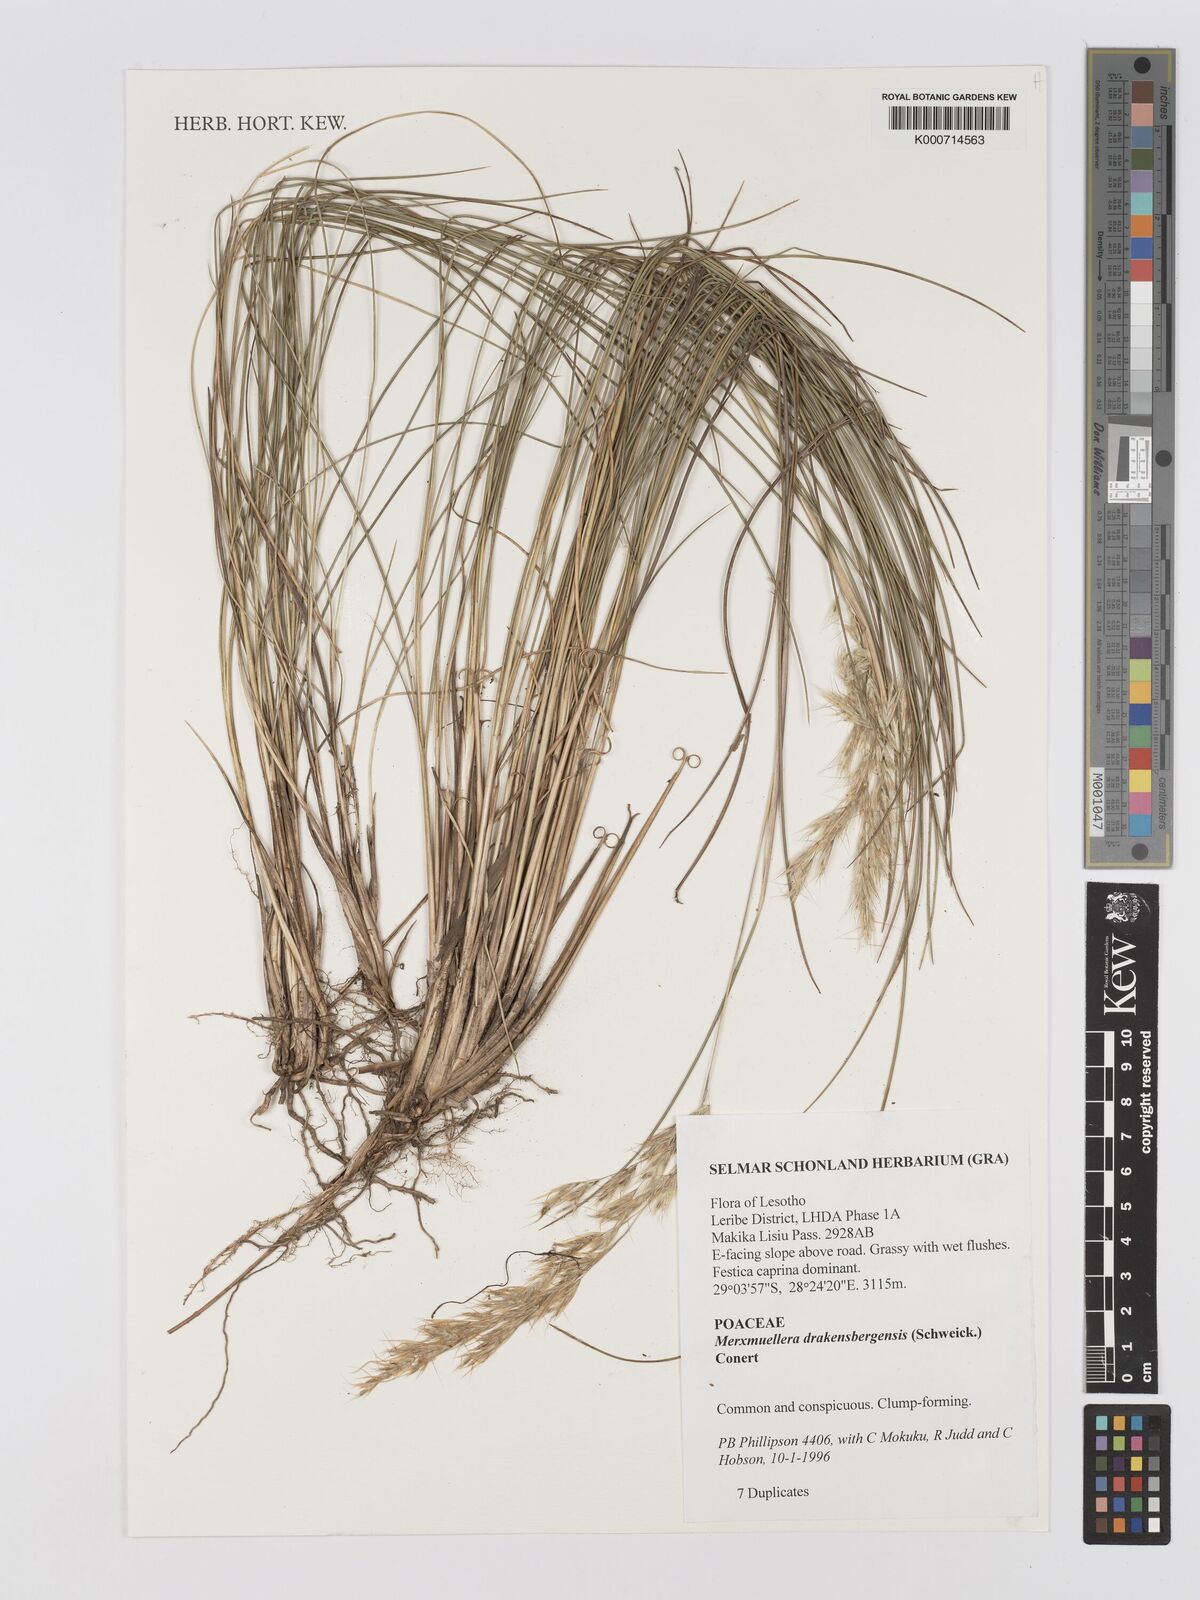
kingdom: Plantae
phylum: Tracheophyta
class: Liliopsida
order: Poales
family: Poaceae
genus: Rytidosperma
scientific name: Rytidosperma
